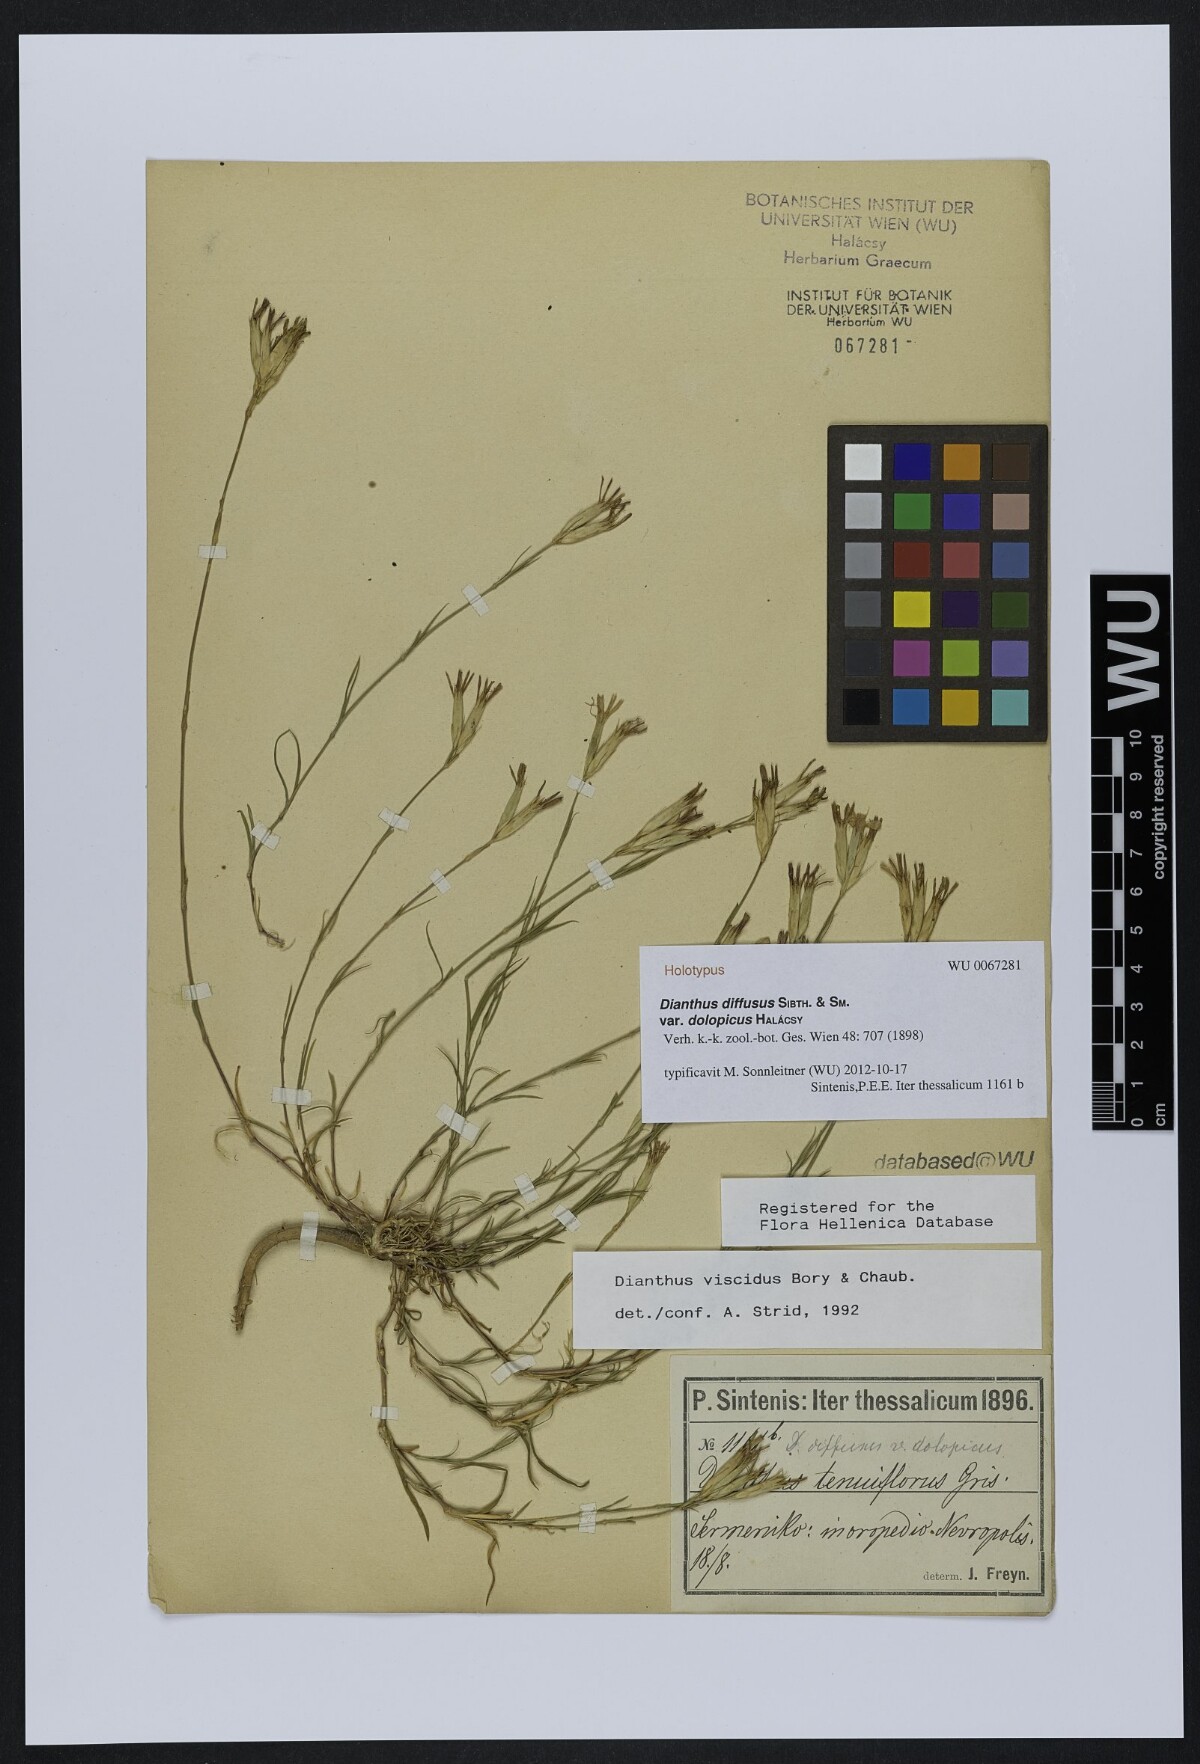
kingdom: Plantae
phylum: Tracheophyta
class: Magnoliopsida
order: Caryophyllales
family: Caryophyllaceae
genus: Dianthus
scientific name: Dianthus viscidus
